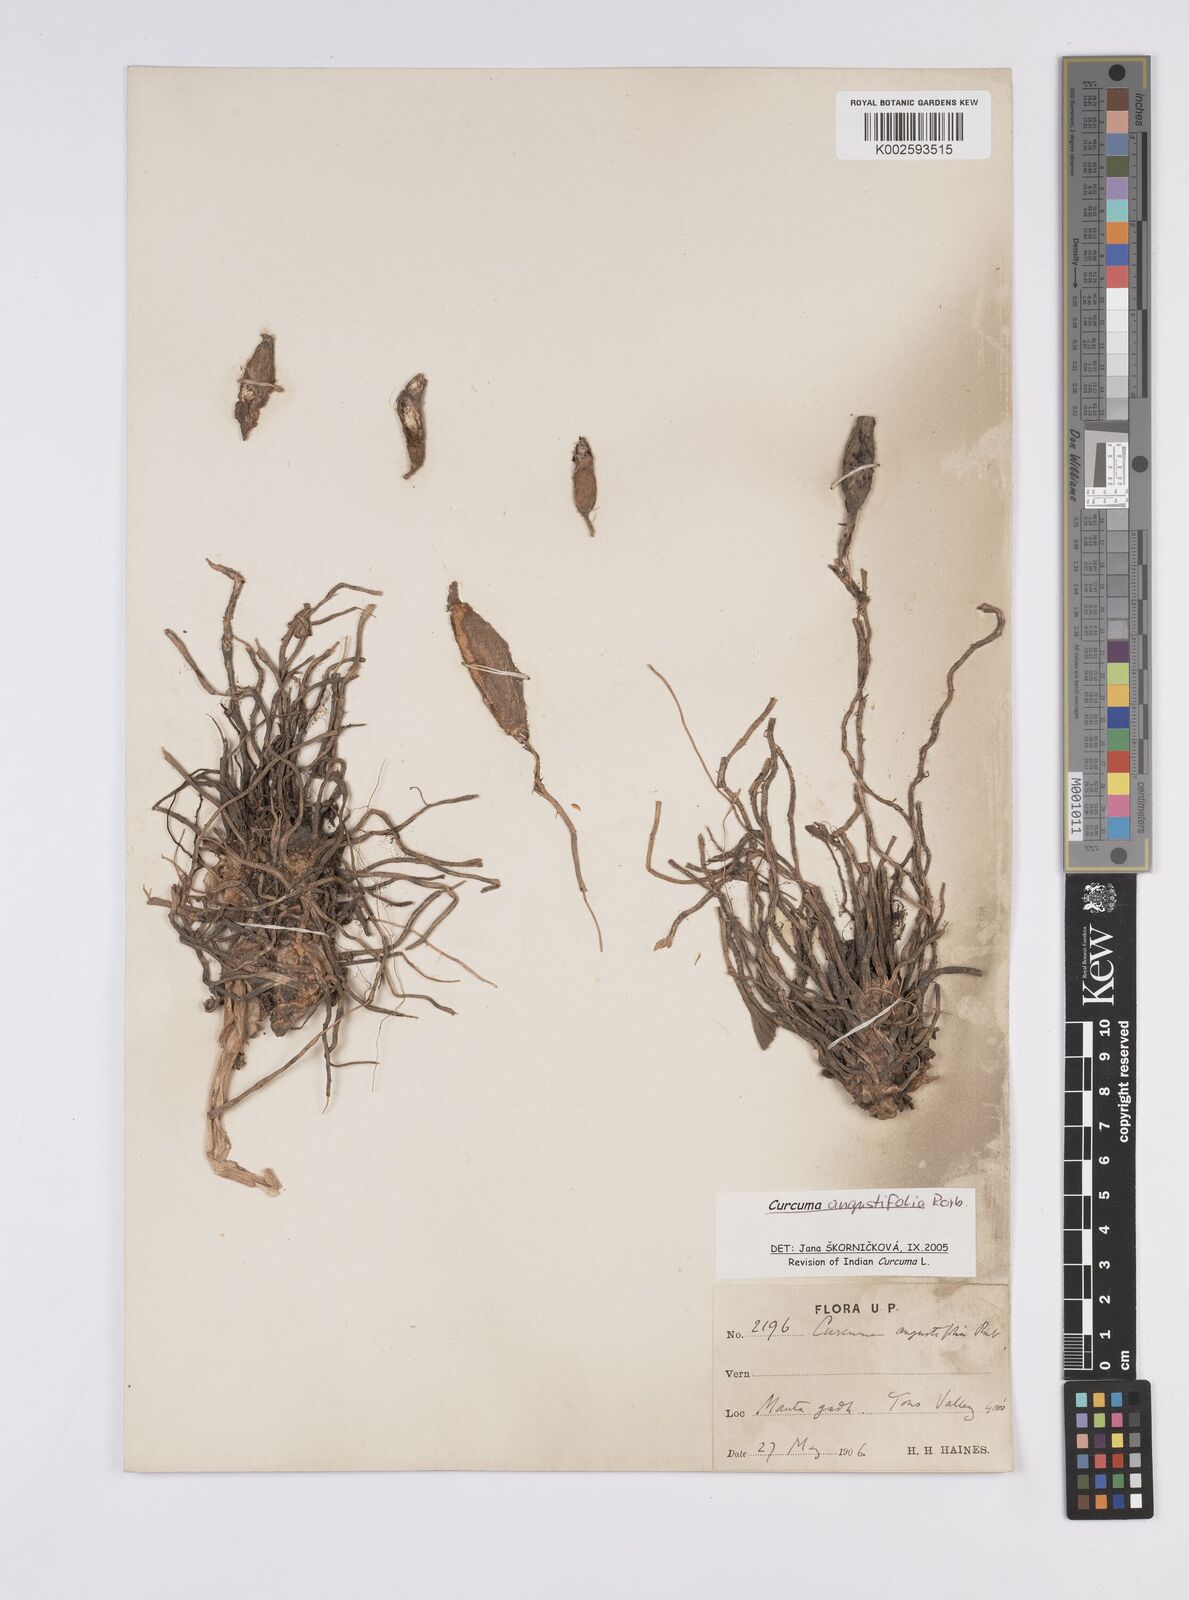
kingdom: Plantae
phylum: Tracheophyta
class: Liliopsida
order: Zingiberales
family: Zingiberaceae
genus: Curcuma
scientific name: Curcuma angustifolia
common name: East indian arrowroot
